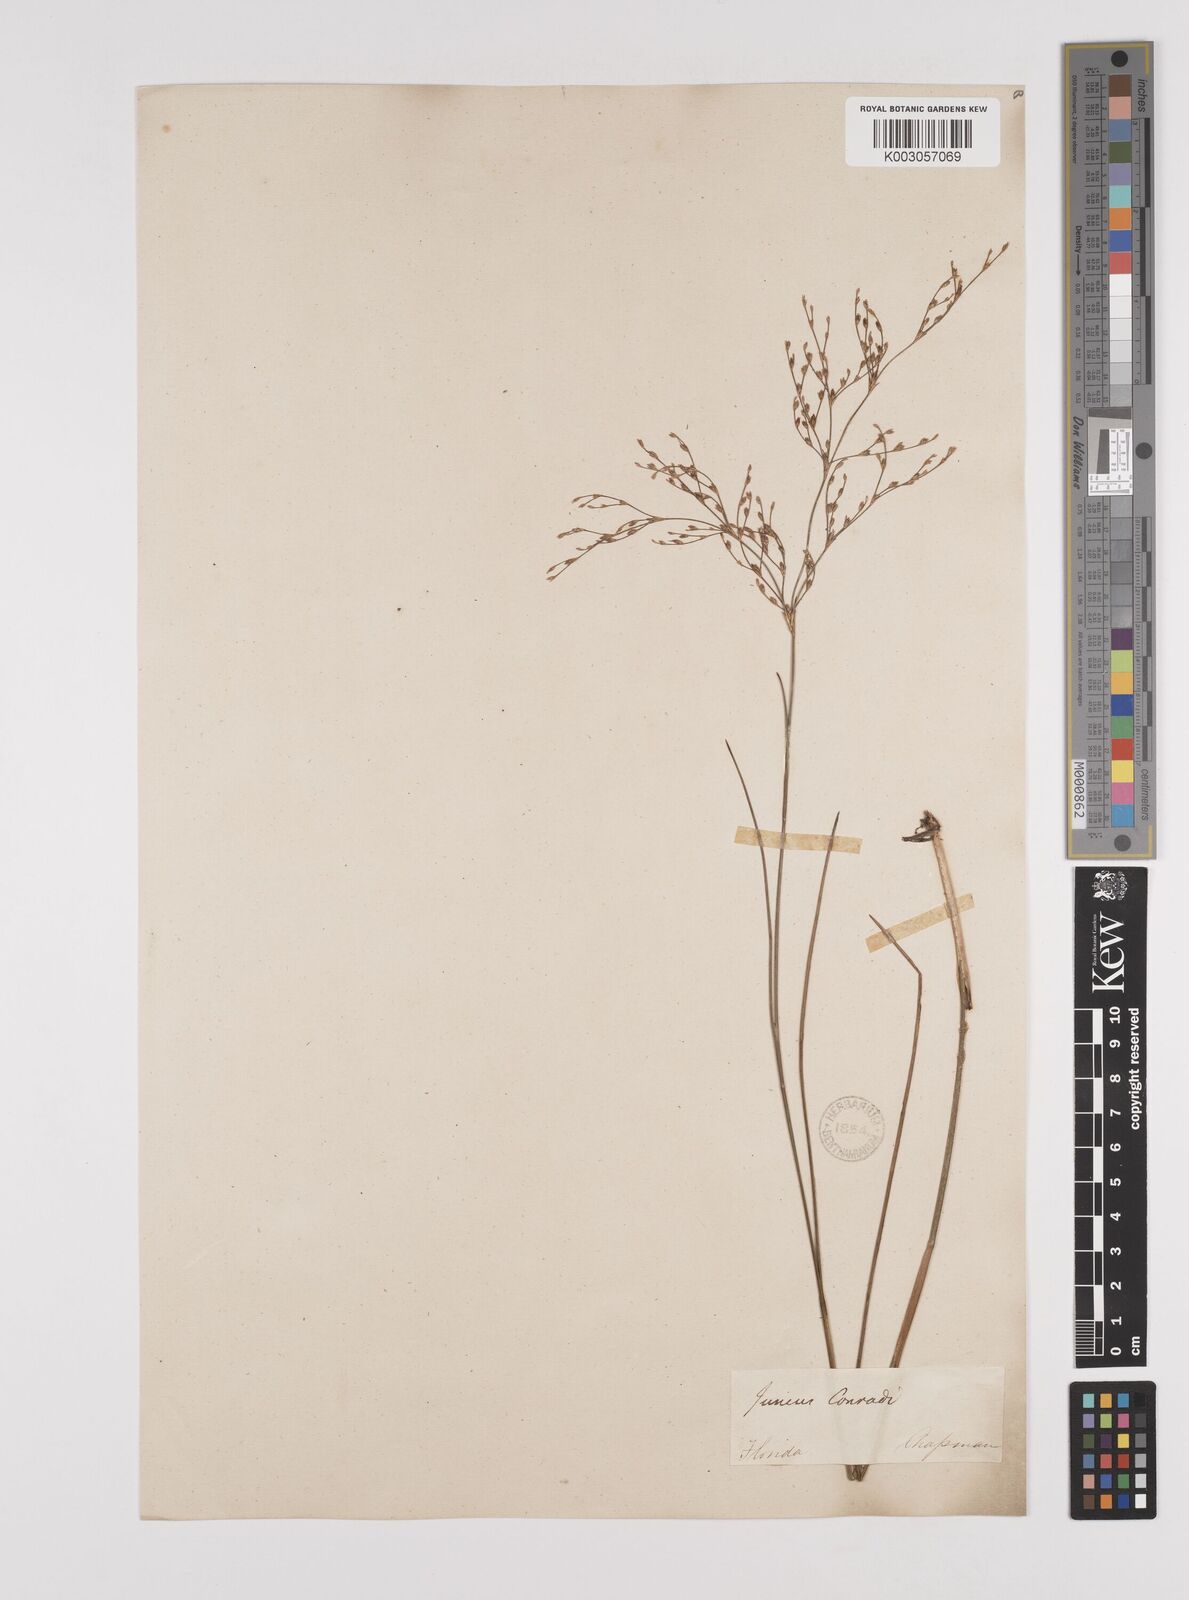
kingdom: Plantae
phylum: Tracheophyta
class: Liliopsida
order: Poales
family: Juncaceae
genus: Juncus
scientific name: Juncus pelocarpus
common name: Brown-fruited rush
